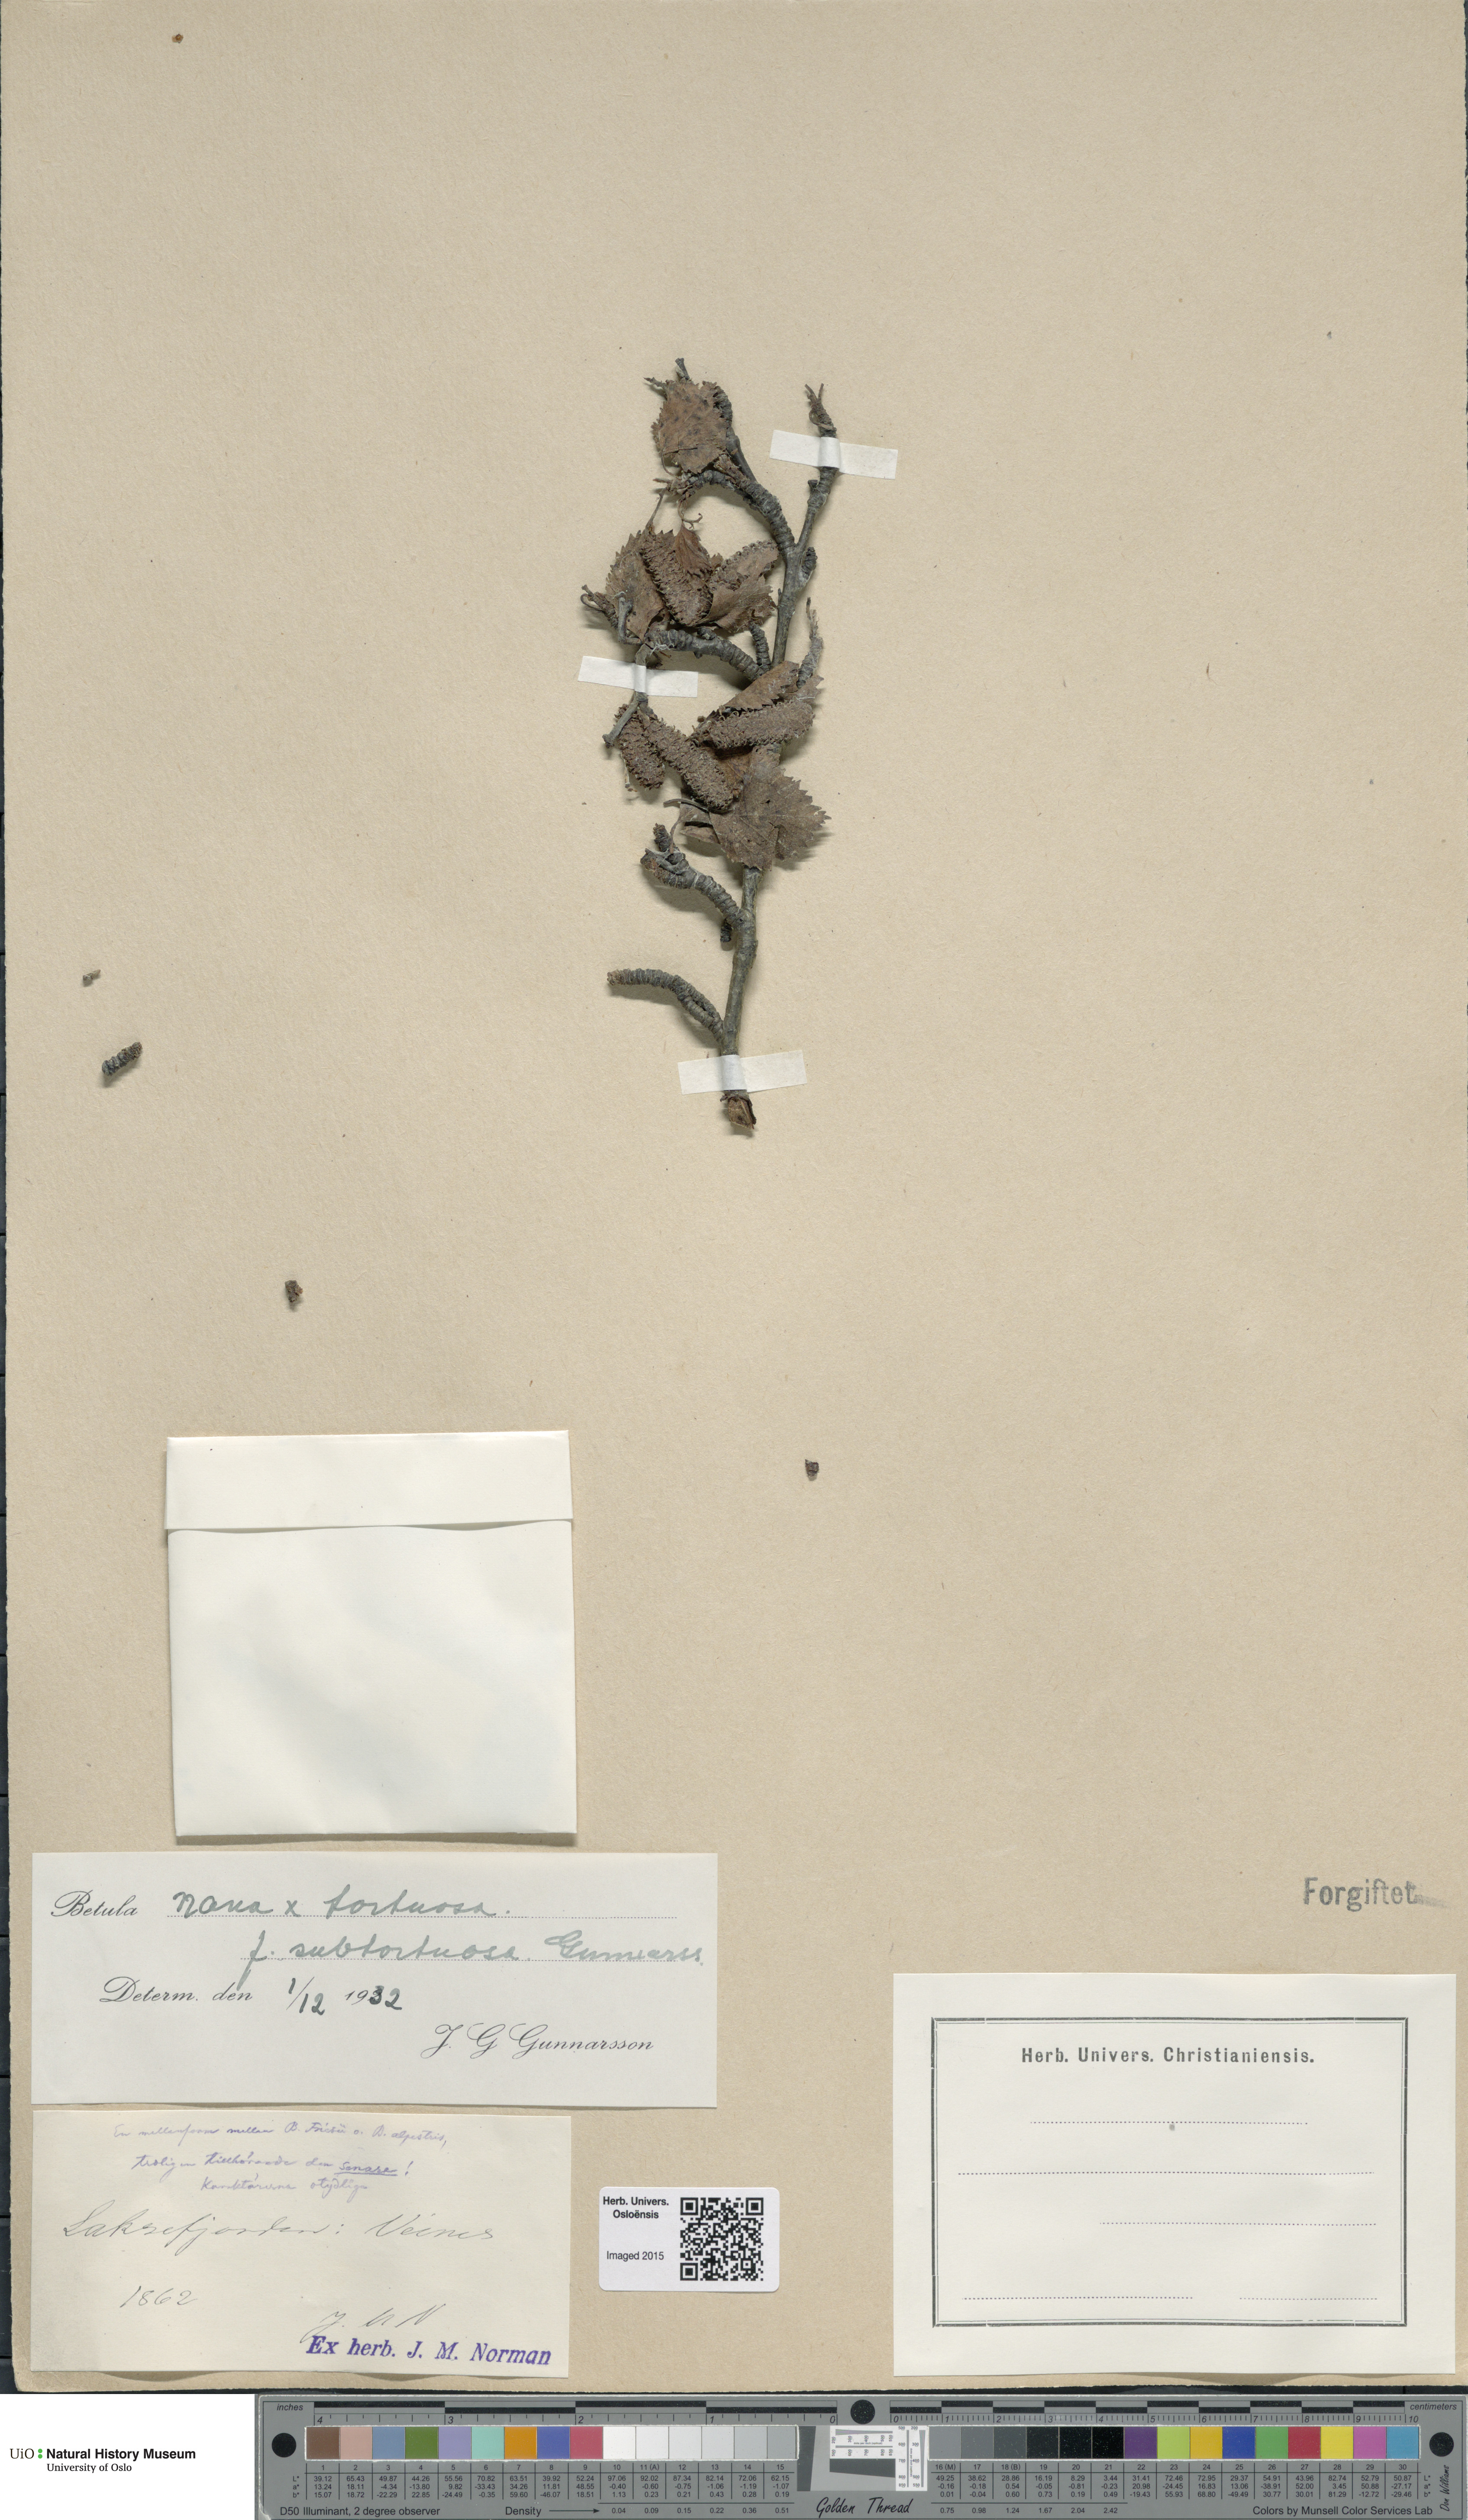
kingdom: Plantae
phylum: Tracheophyta
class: Magnoliopsida
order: Fagales
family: Betulaceae
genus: Betula
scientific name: Betula nana
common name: Arctic dwarf birch
